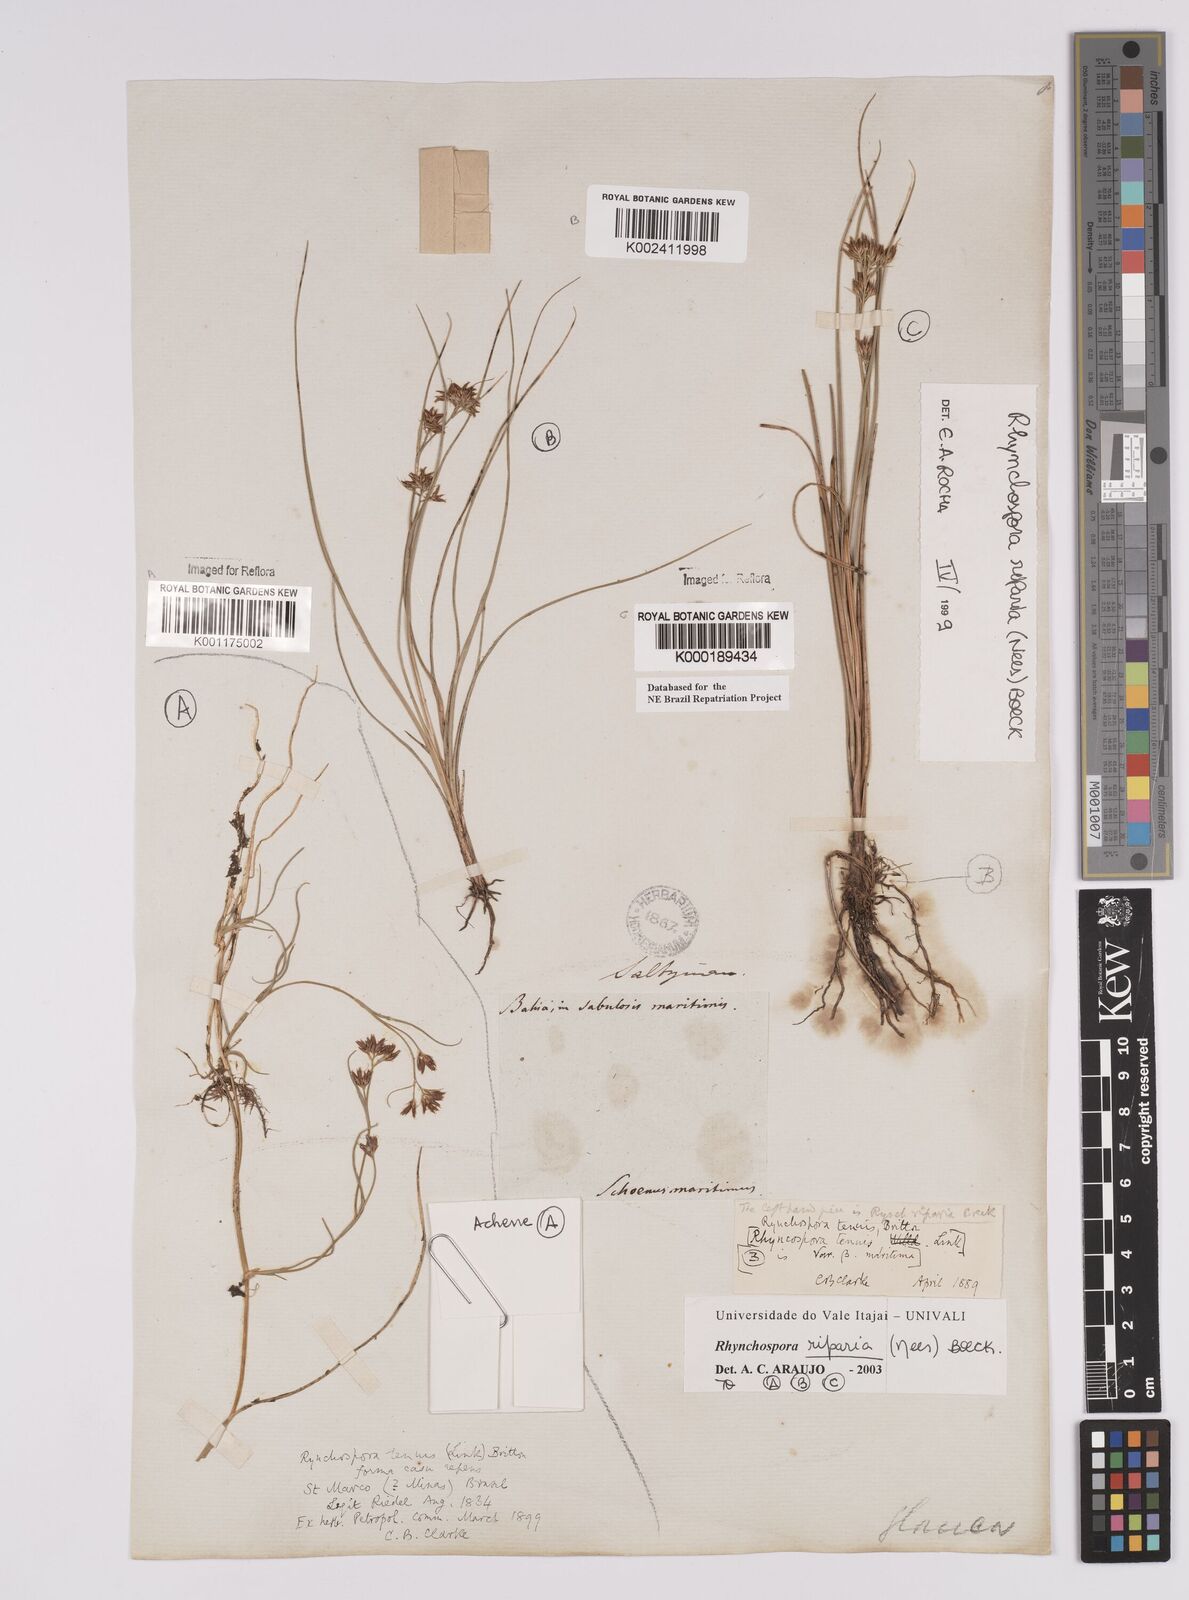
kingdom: Plantae
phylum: Tracheophyta
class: Liliopsida
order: Poales
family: Cyperaceae
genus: Rhynchospora
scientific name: Rhynchospora riparia
